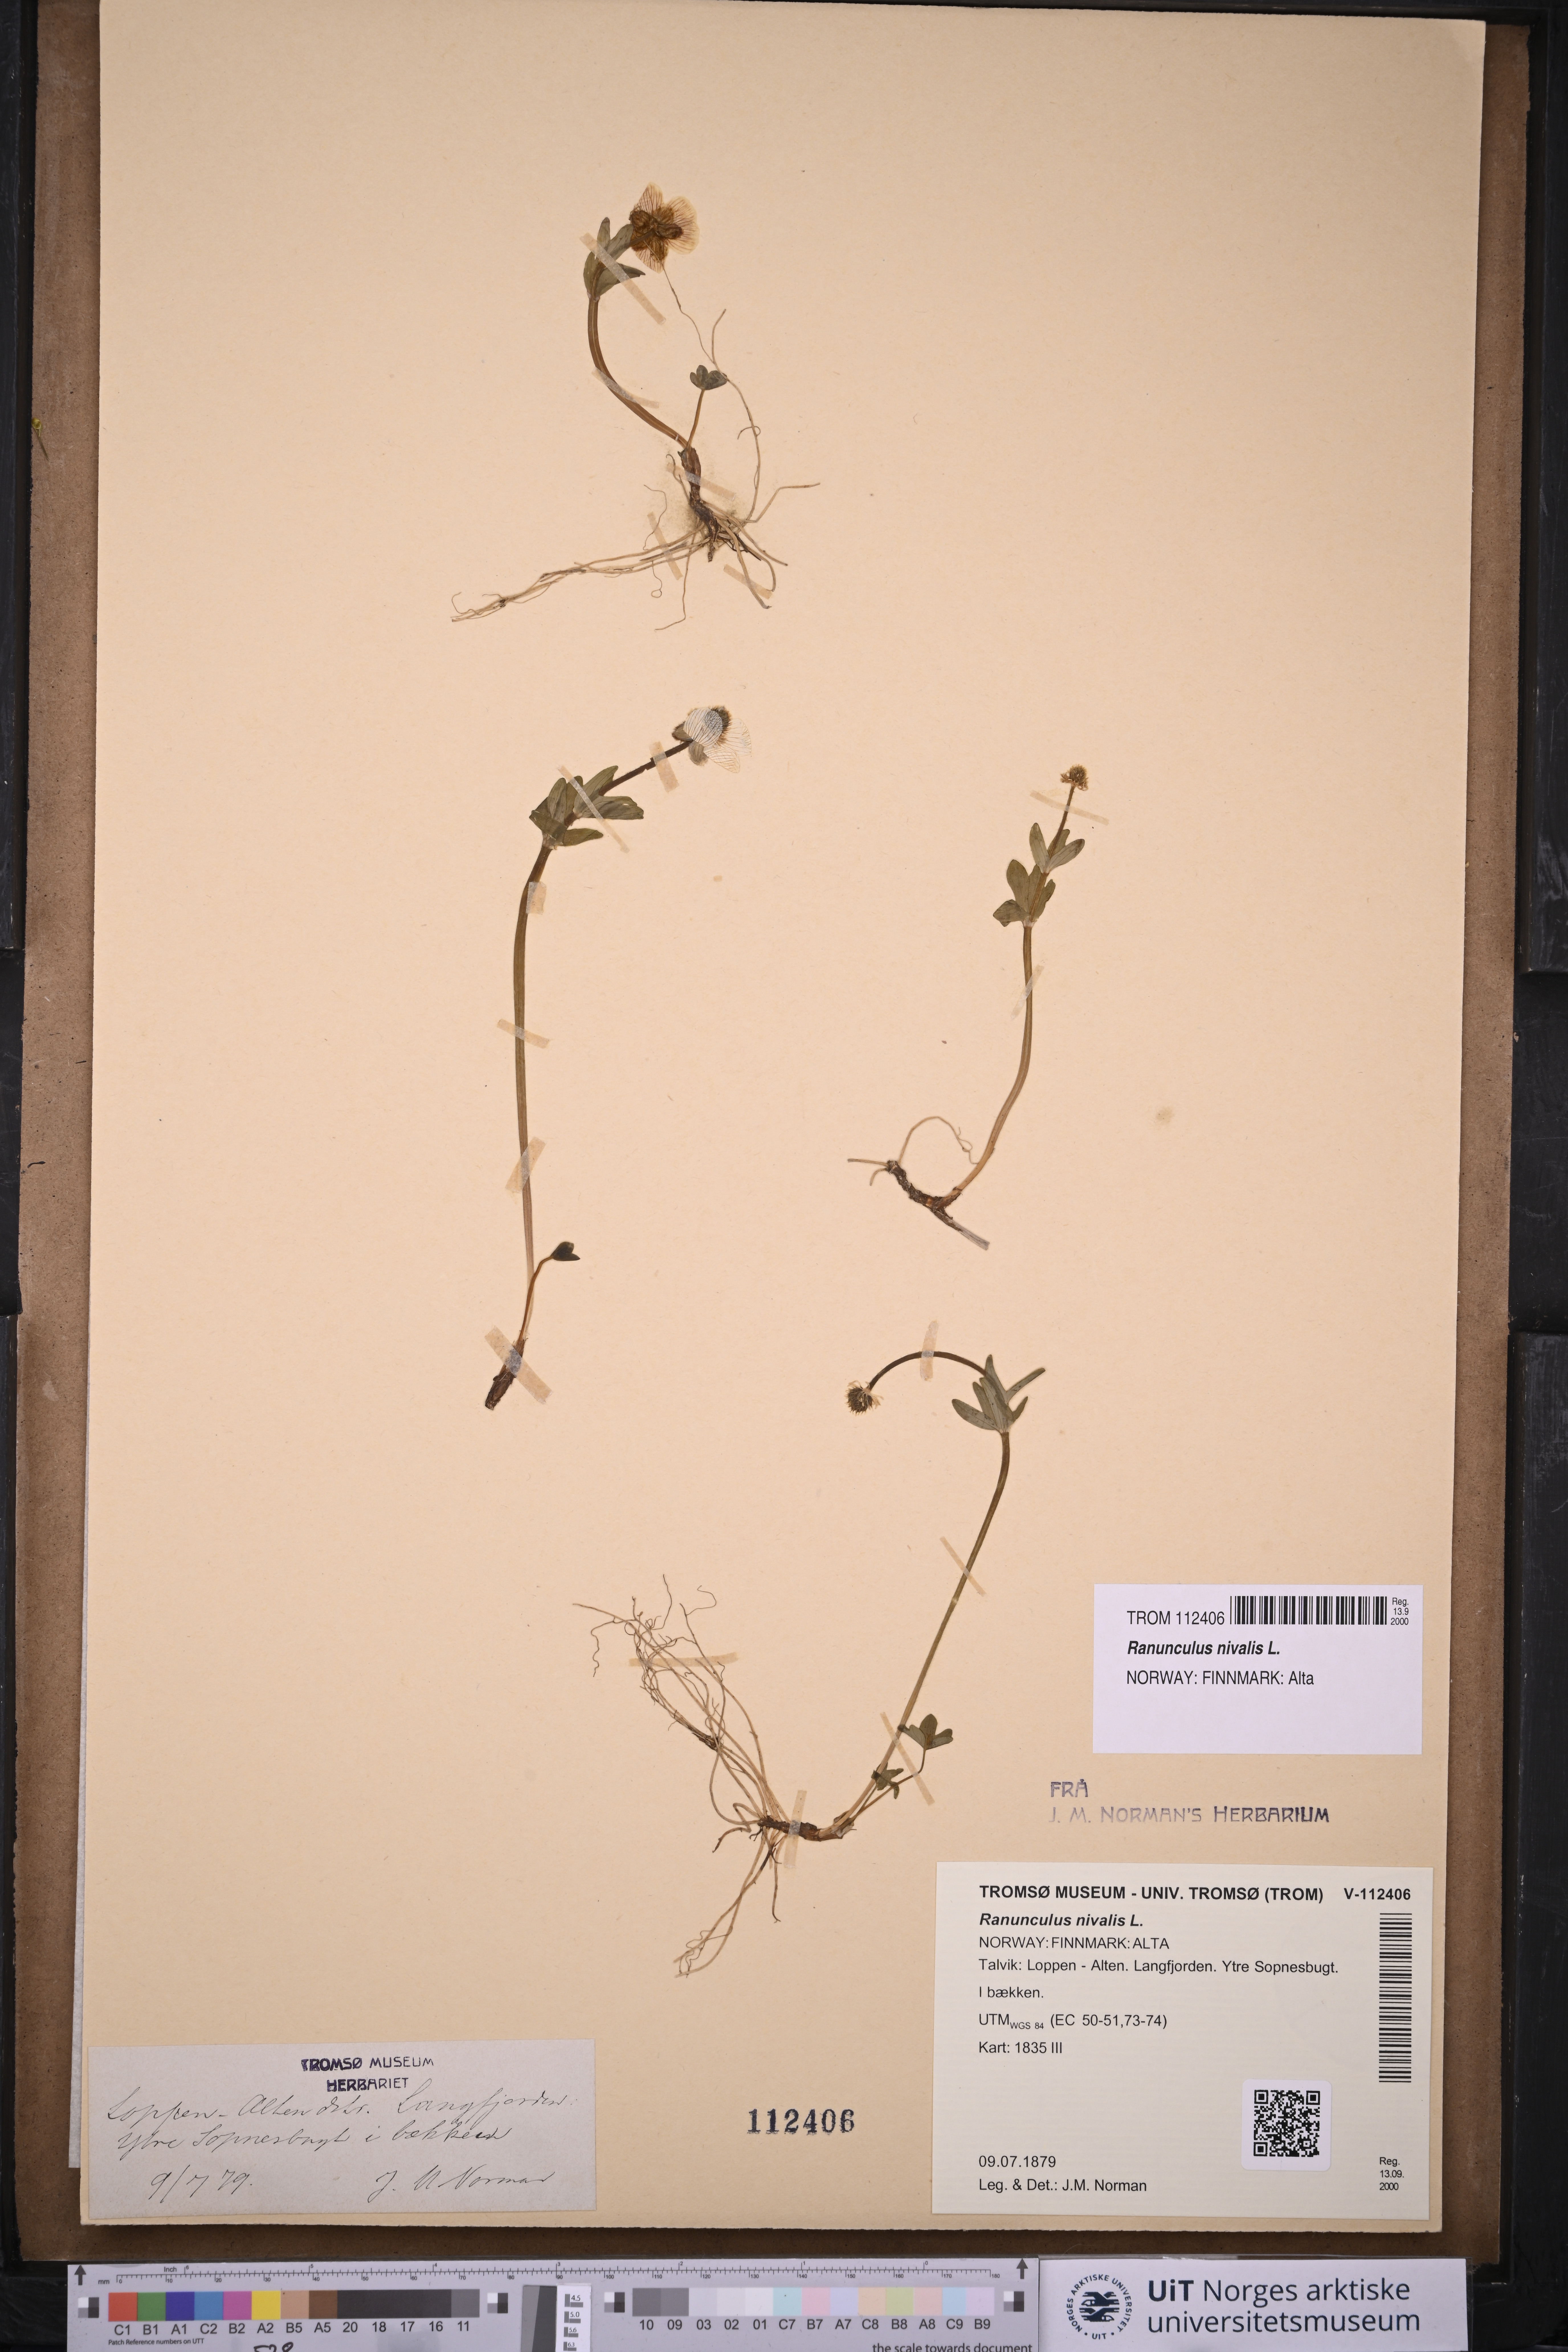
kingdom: Plantae
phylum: Tracheophyta
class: Magnoliopsida
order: Ranunculales
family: Ranunculaceae
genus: Ranunculus
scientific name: Ranunculus nivalis
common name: Snow buttercup
